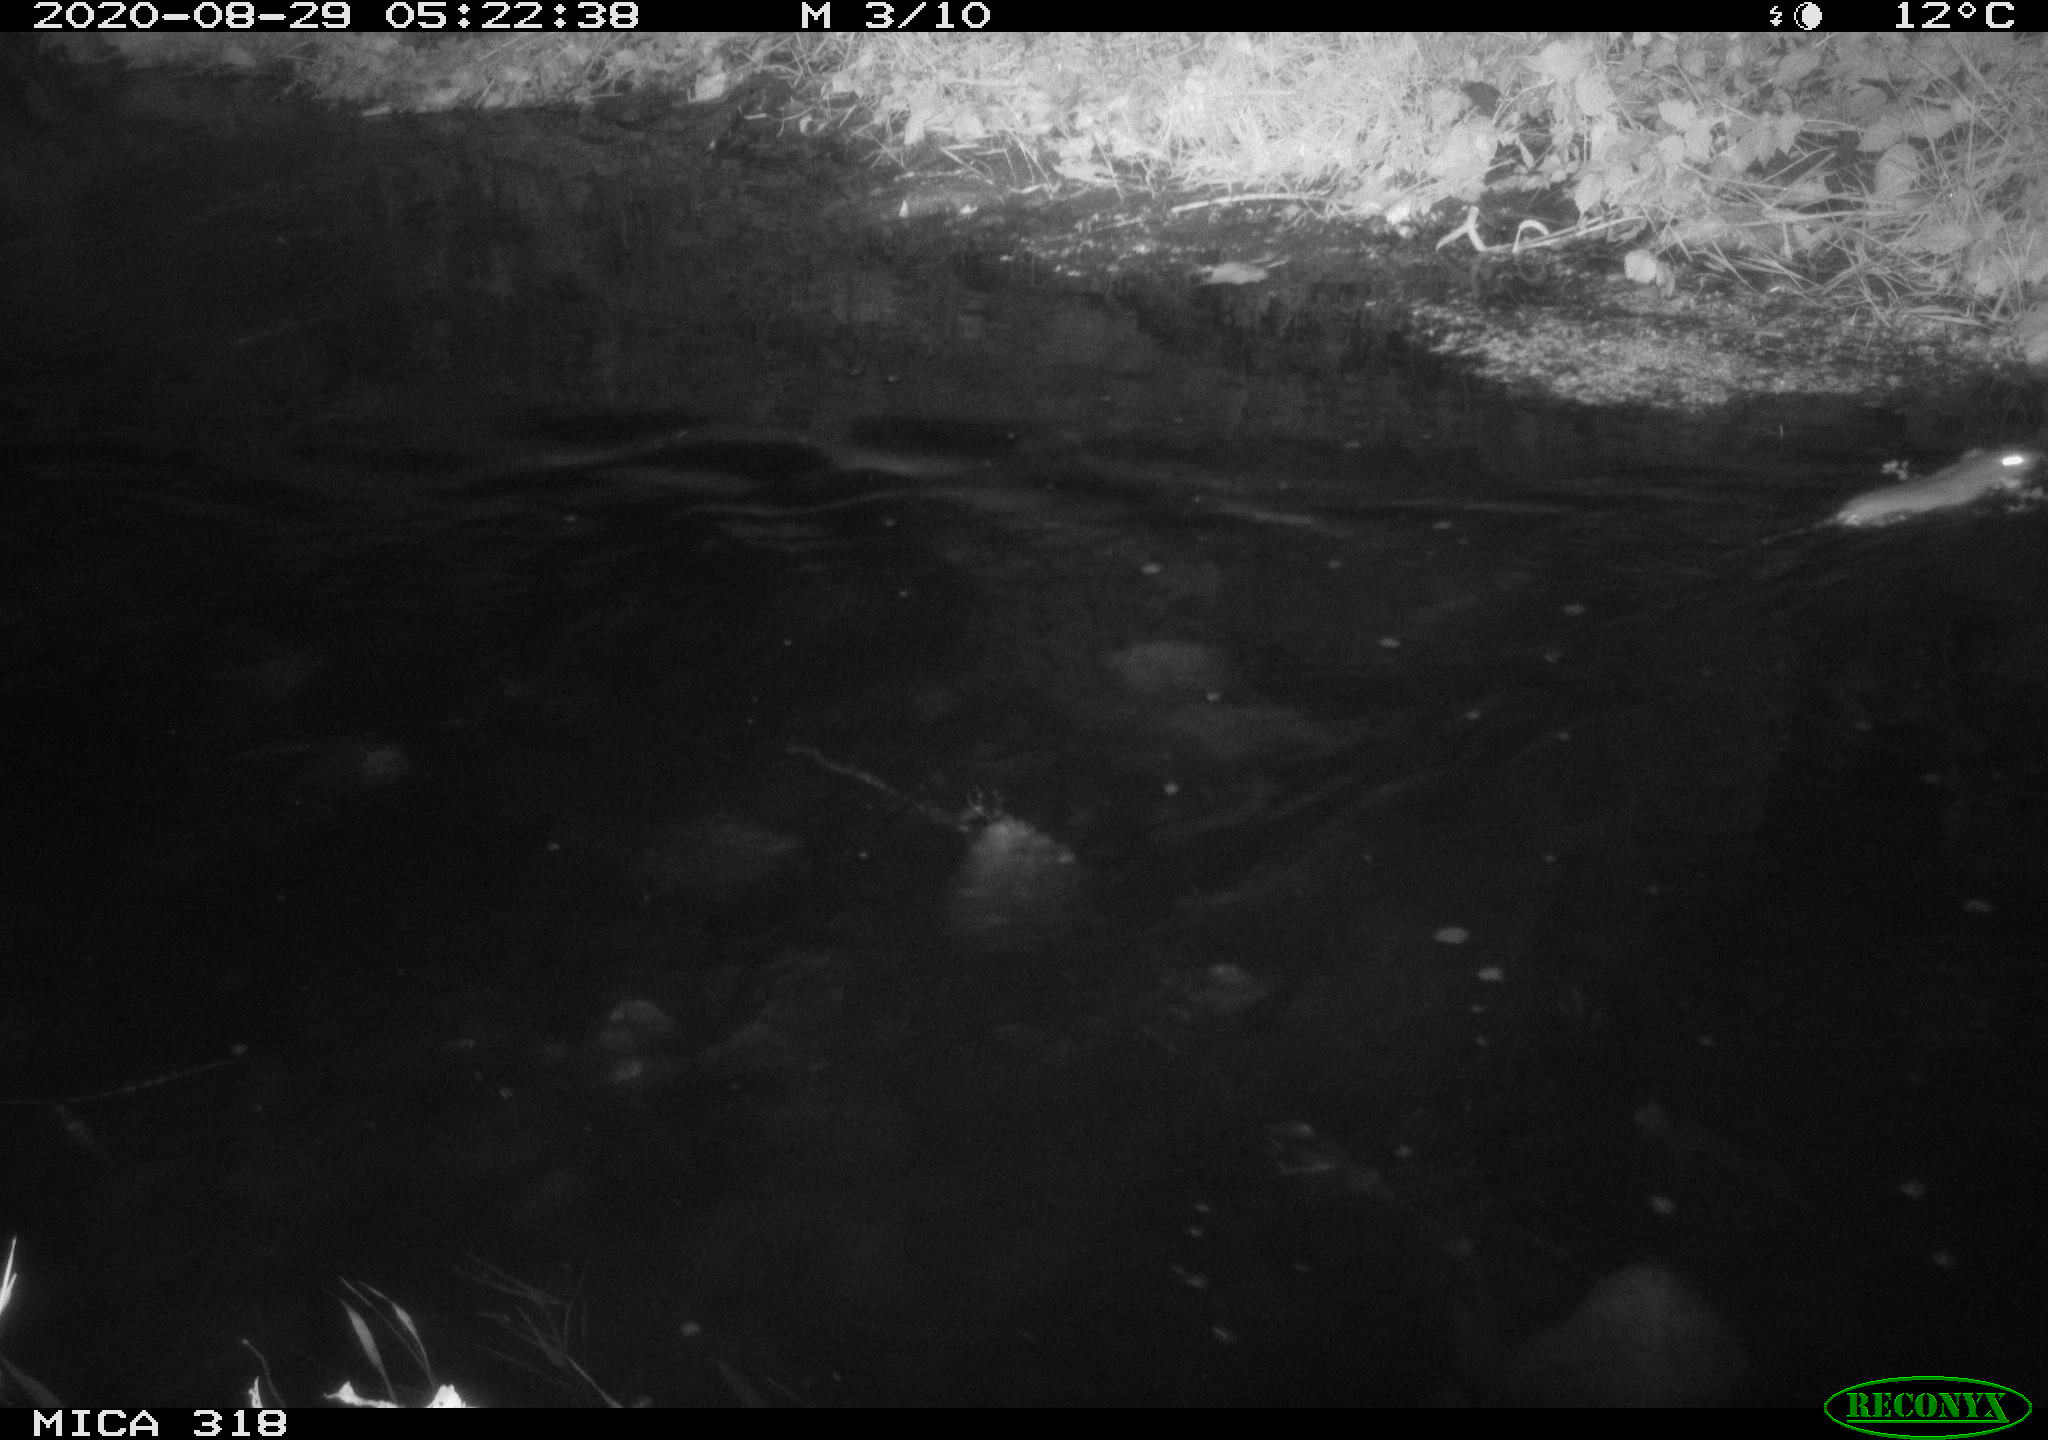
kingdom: Animalia
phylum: Chordata
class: Mammalia
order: Rodentia
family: Muridae
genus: Rattus
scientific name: Rattus norvegicus
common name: Brown rat
